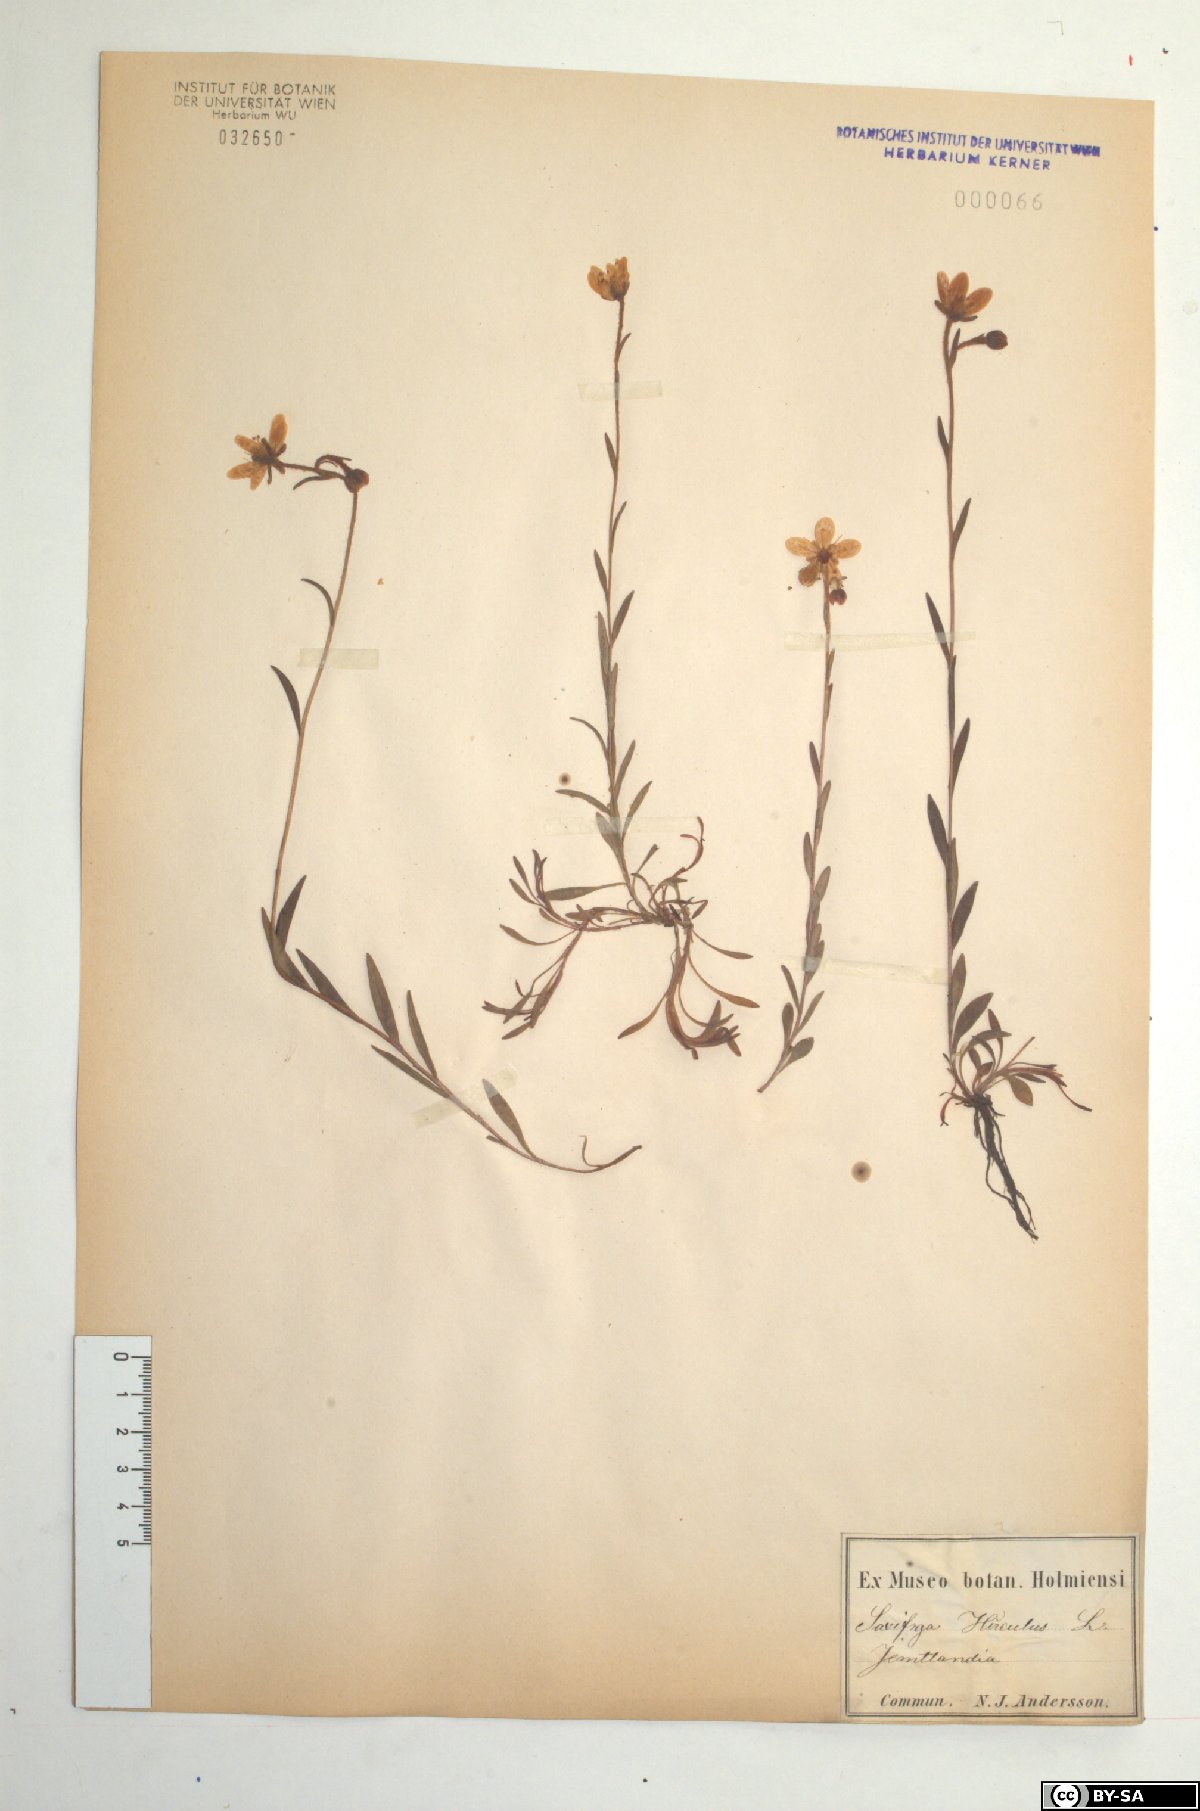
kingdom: Plantae
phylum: Tracheophyta
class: Magnoliopsida
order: Saxifragales
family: Saxifragaceae
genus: Saxifraga
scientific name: Saxifraga hirculus
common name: Yellow marsh saxifrage
